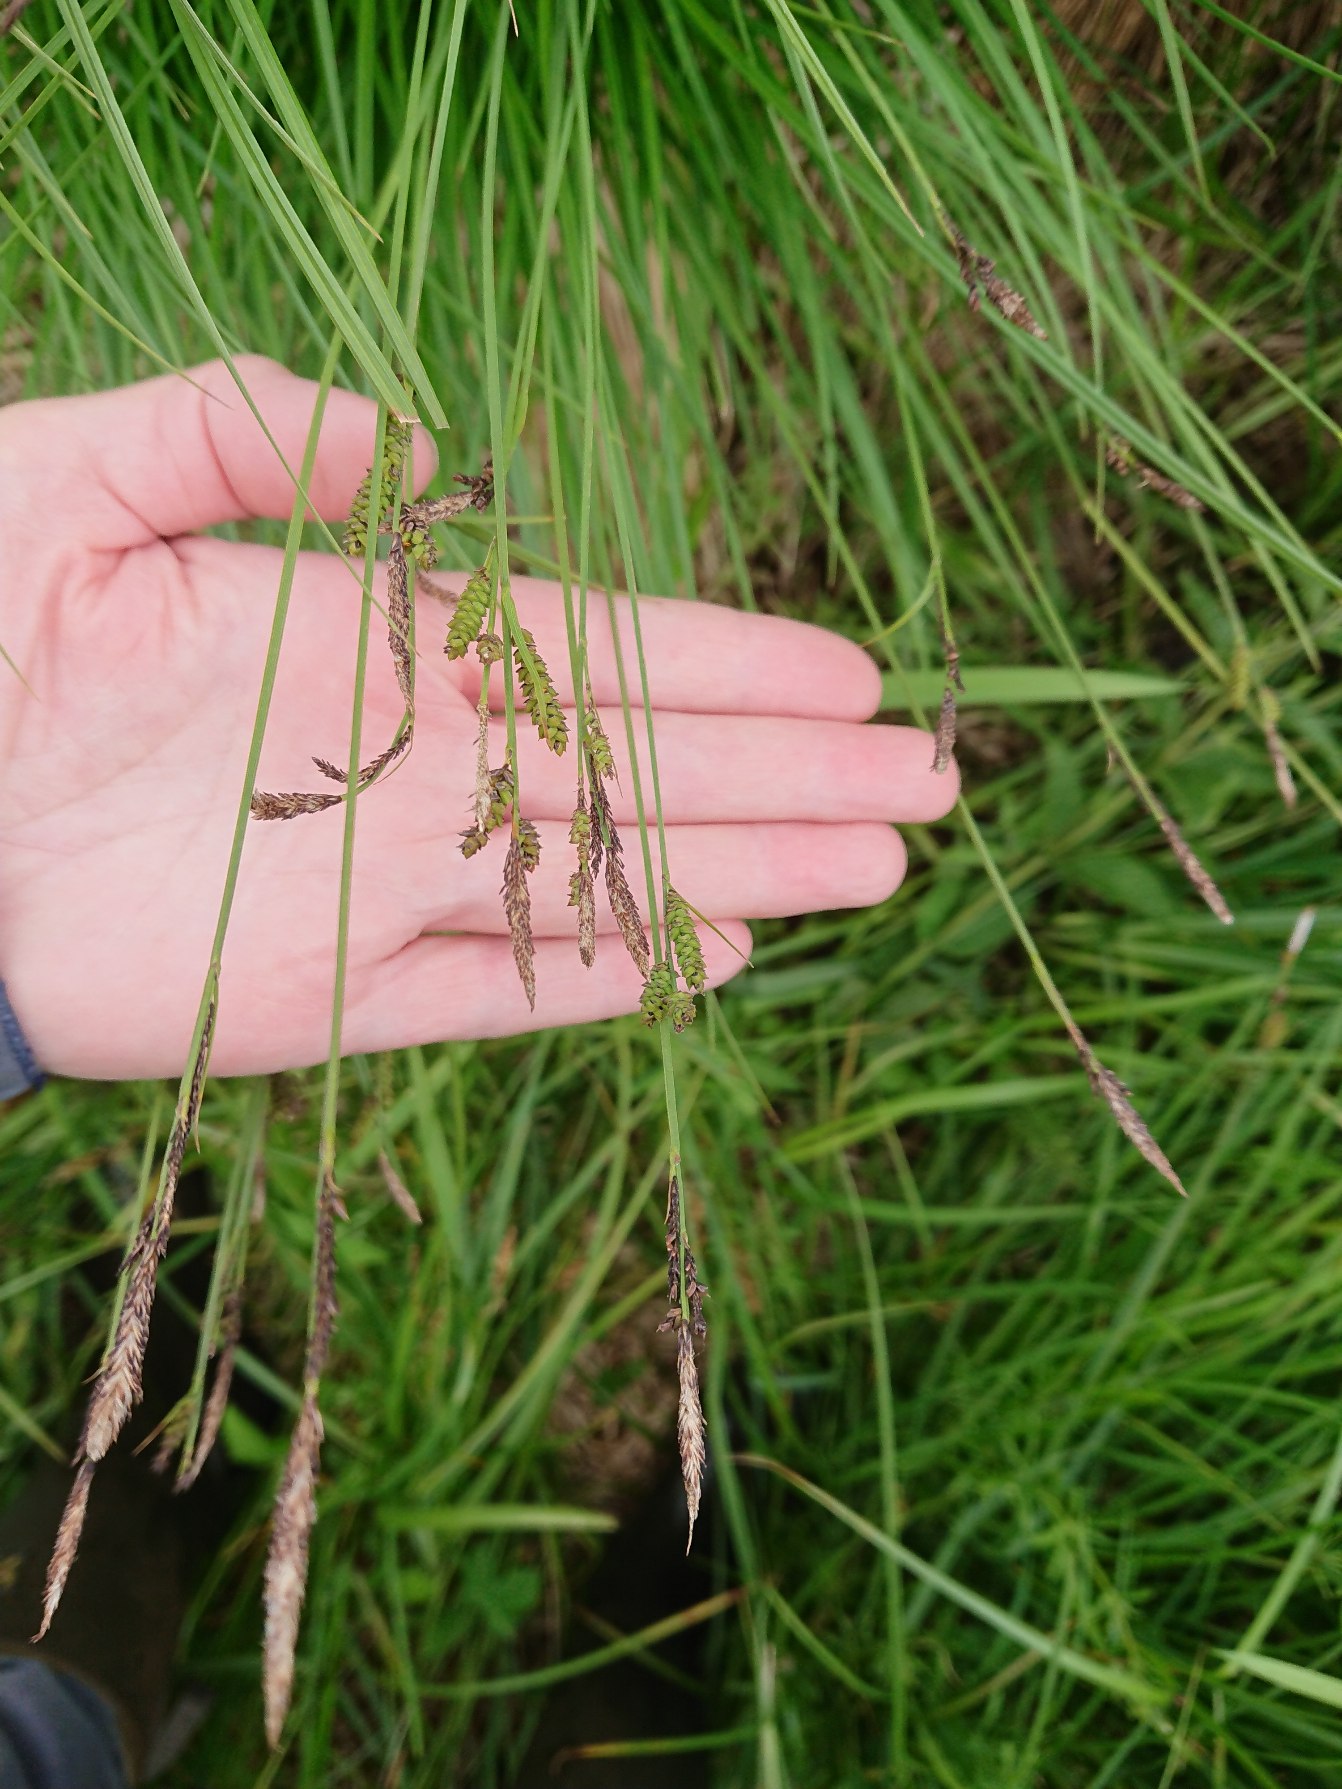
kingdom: Plantae
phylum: Tracheophyta
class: Liliopsida
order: Poales
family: Cyperaceae
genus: Carex
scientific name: Carex cespitosa
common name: Tue-star
